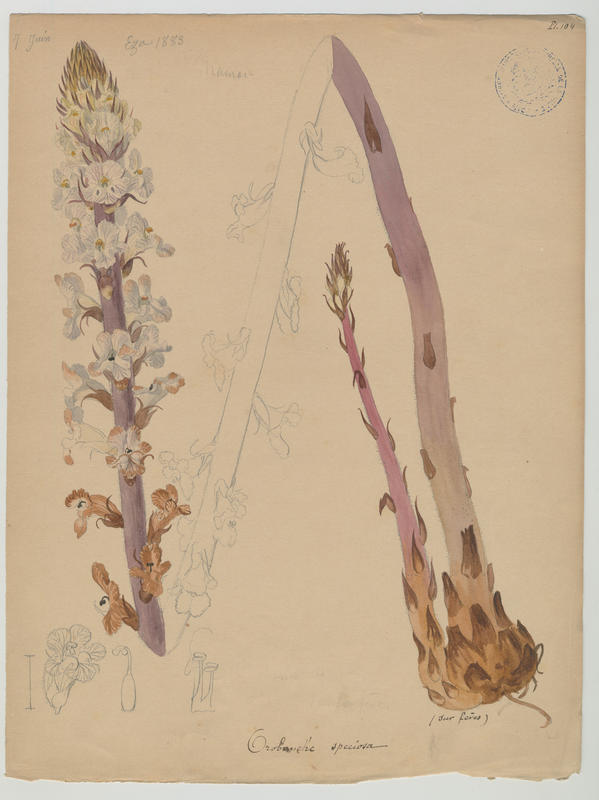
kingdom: Plantae
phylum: Tracheophyta
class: Magnoliopsida
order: Lamiales
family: Orobanchaceae
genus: Orobanche
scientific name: Orobanche crenata
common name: Bean broomrape
